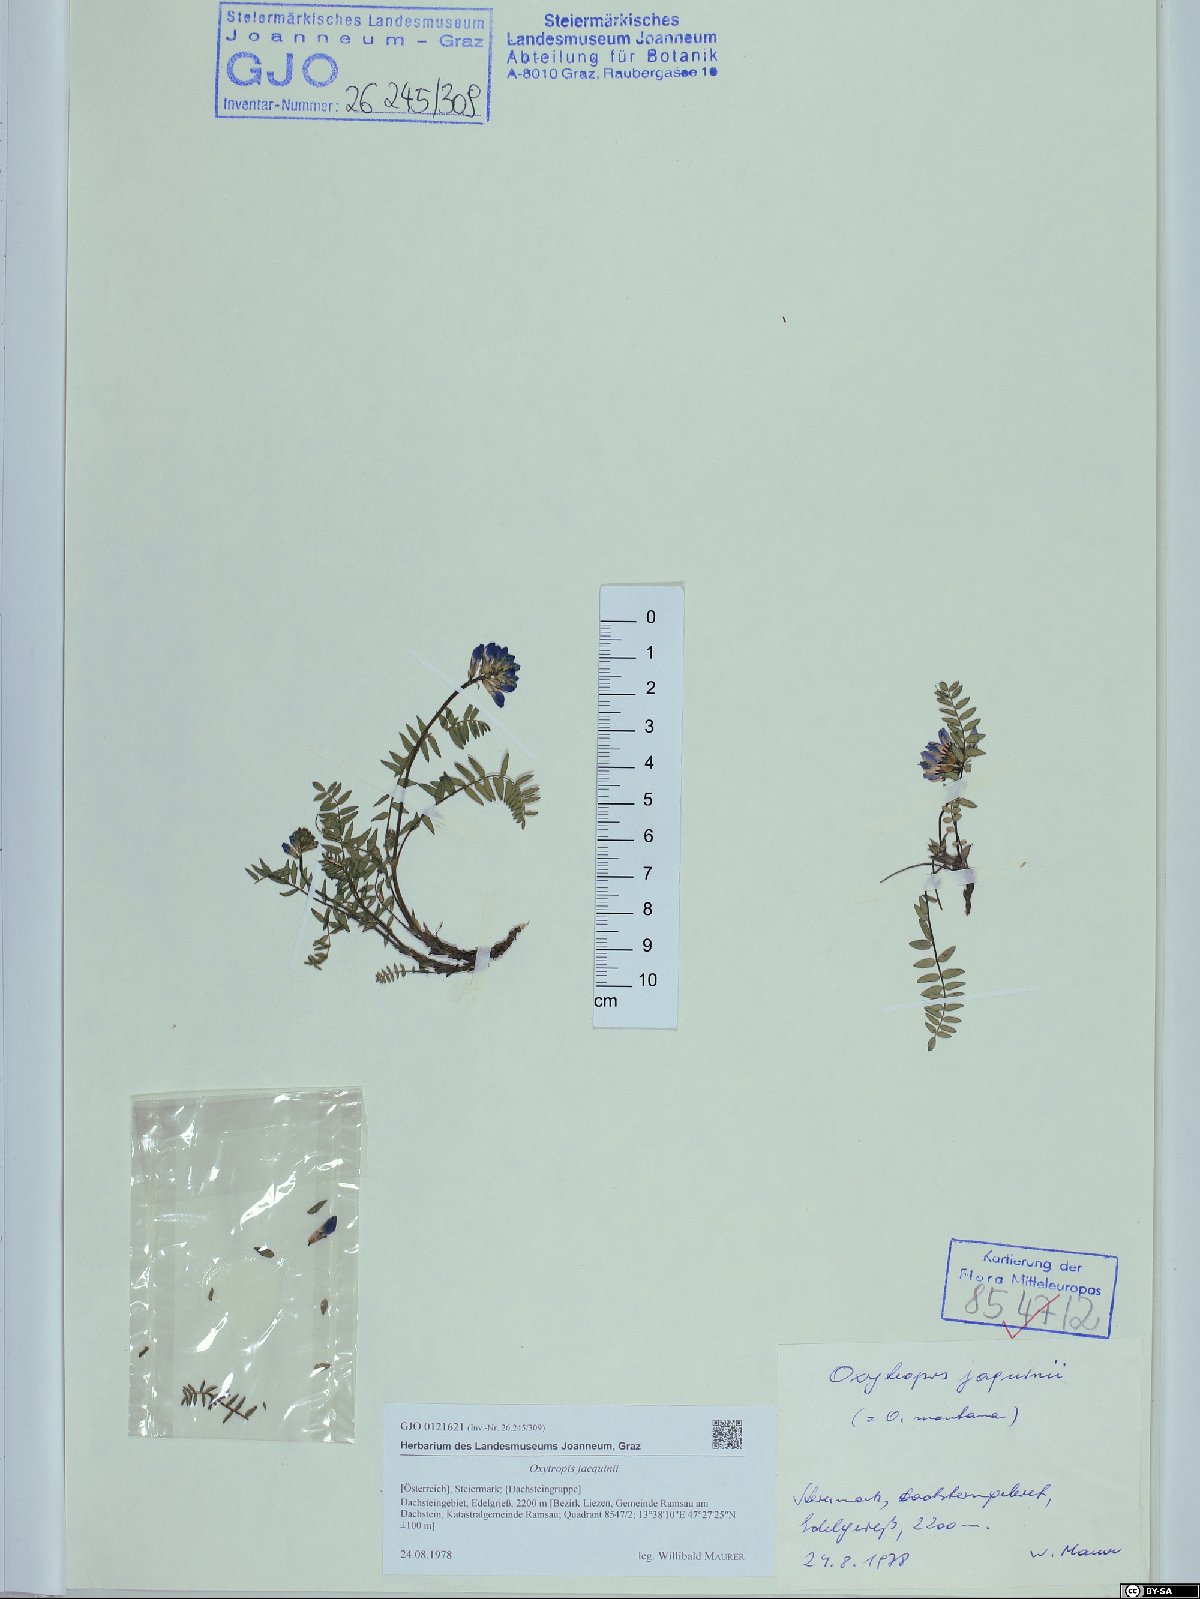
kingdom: Plantae
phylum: Tracheophyta
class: Magnoliopsida
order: Fabales
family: Fabaceae
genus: Oxytropis
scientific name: Oxytropis montana
